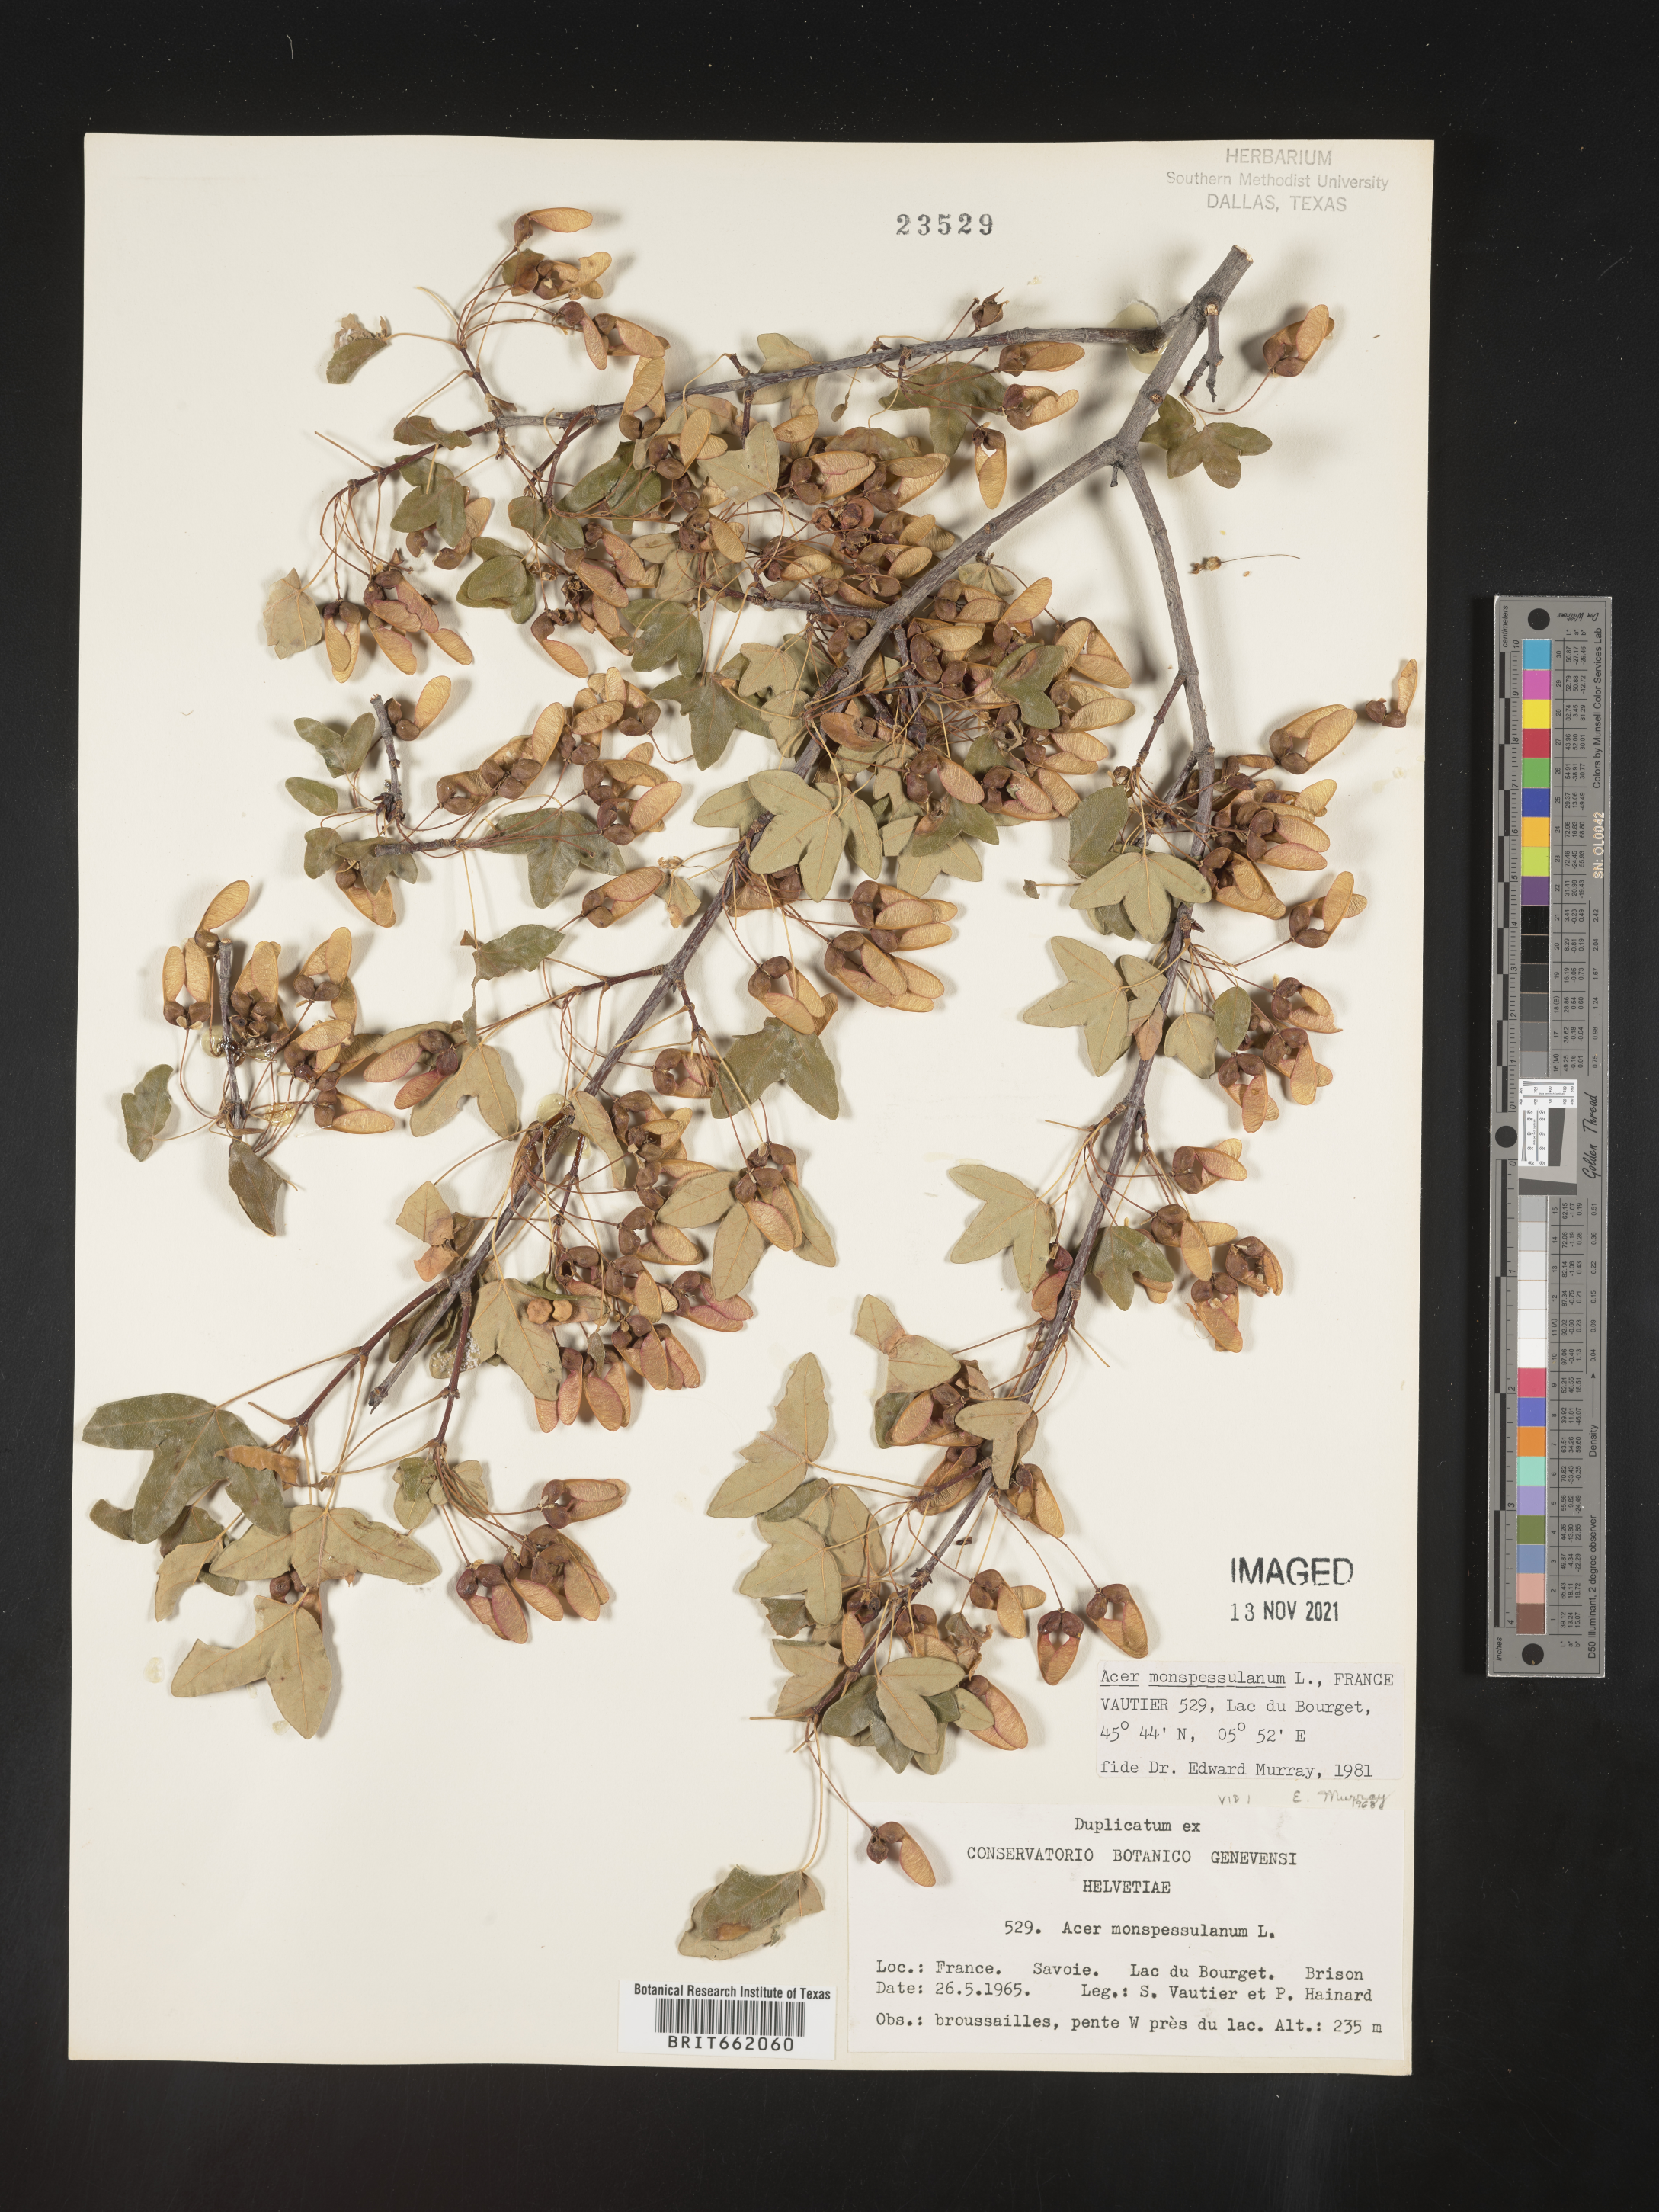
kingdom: Plantae
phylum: Tracheophyta
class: Magnoliopsida
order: Sapindales
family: Sapindaceae
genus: Acer
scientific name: Acer
